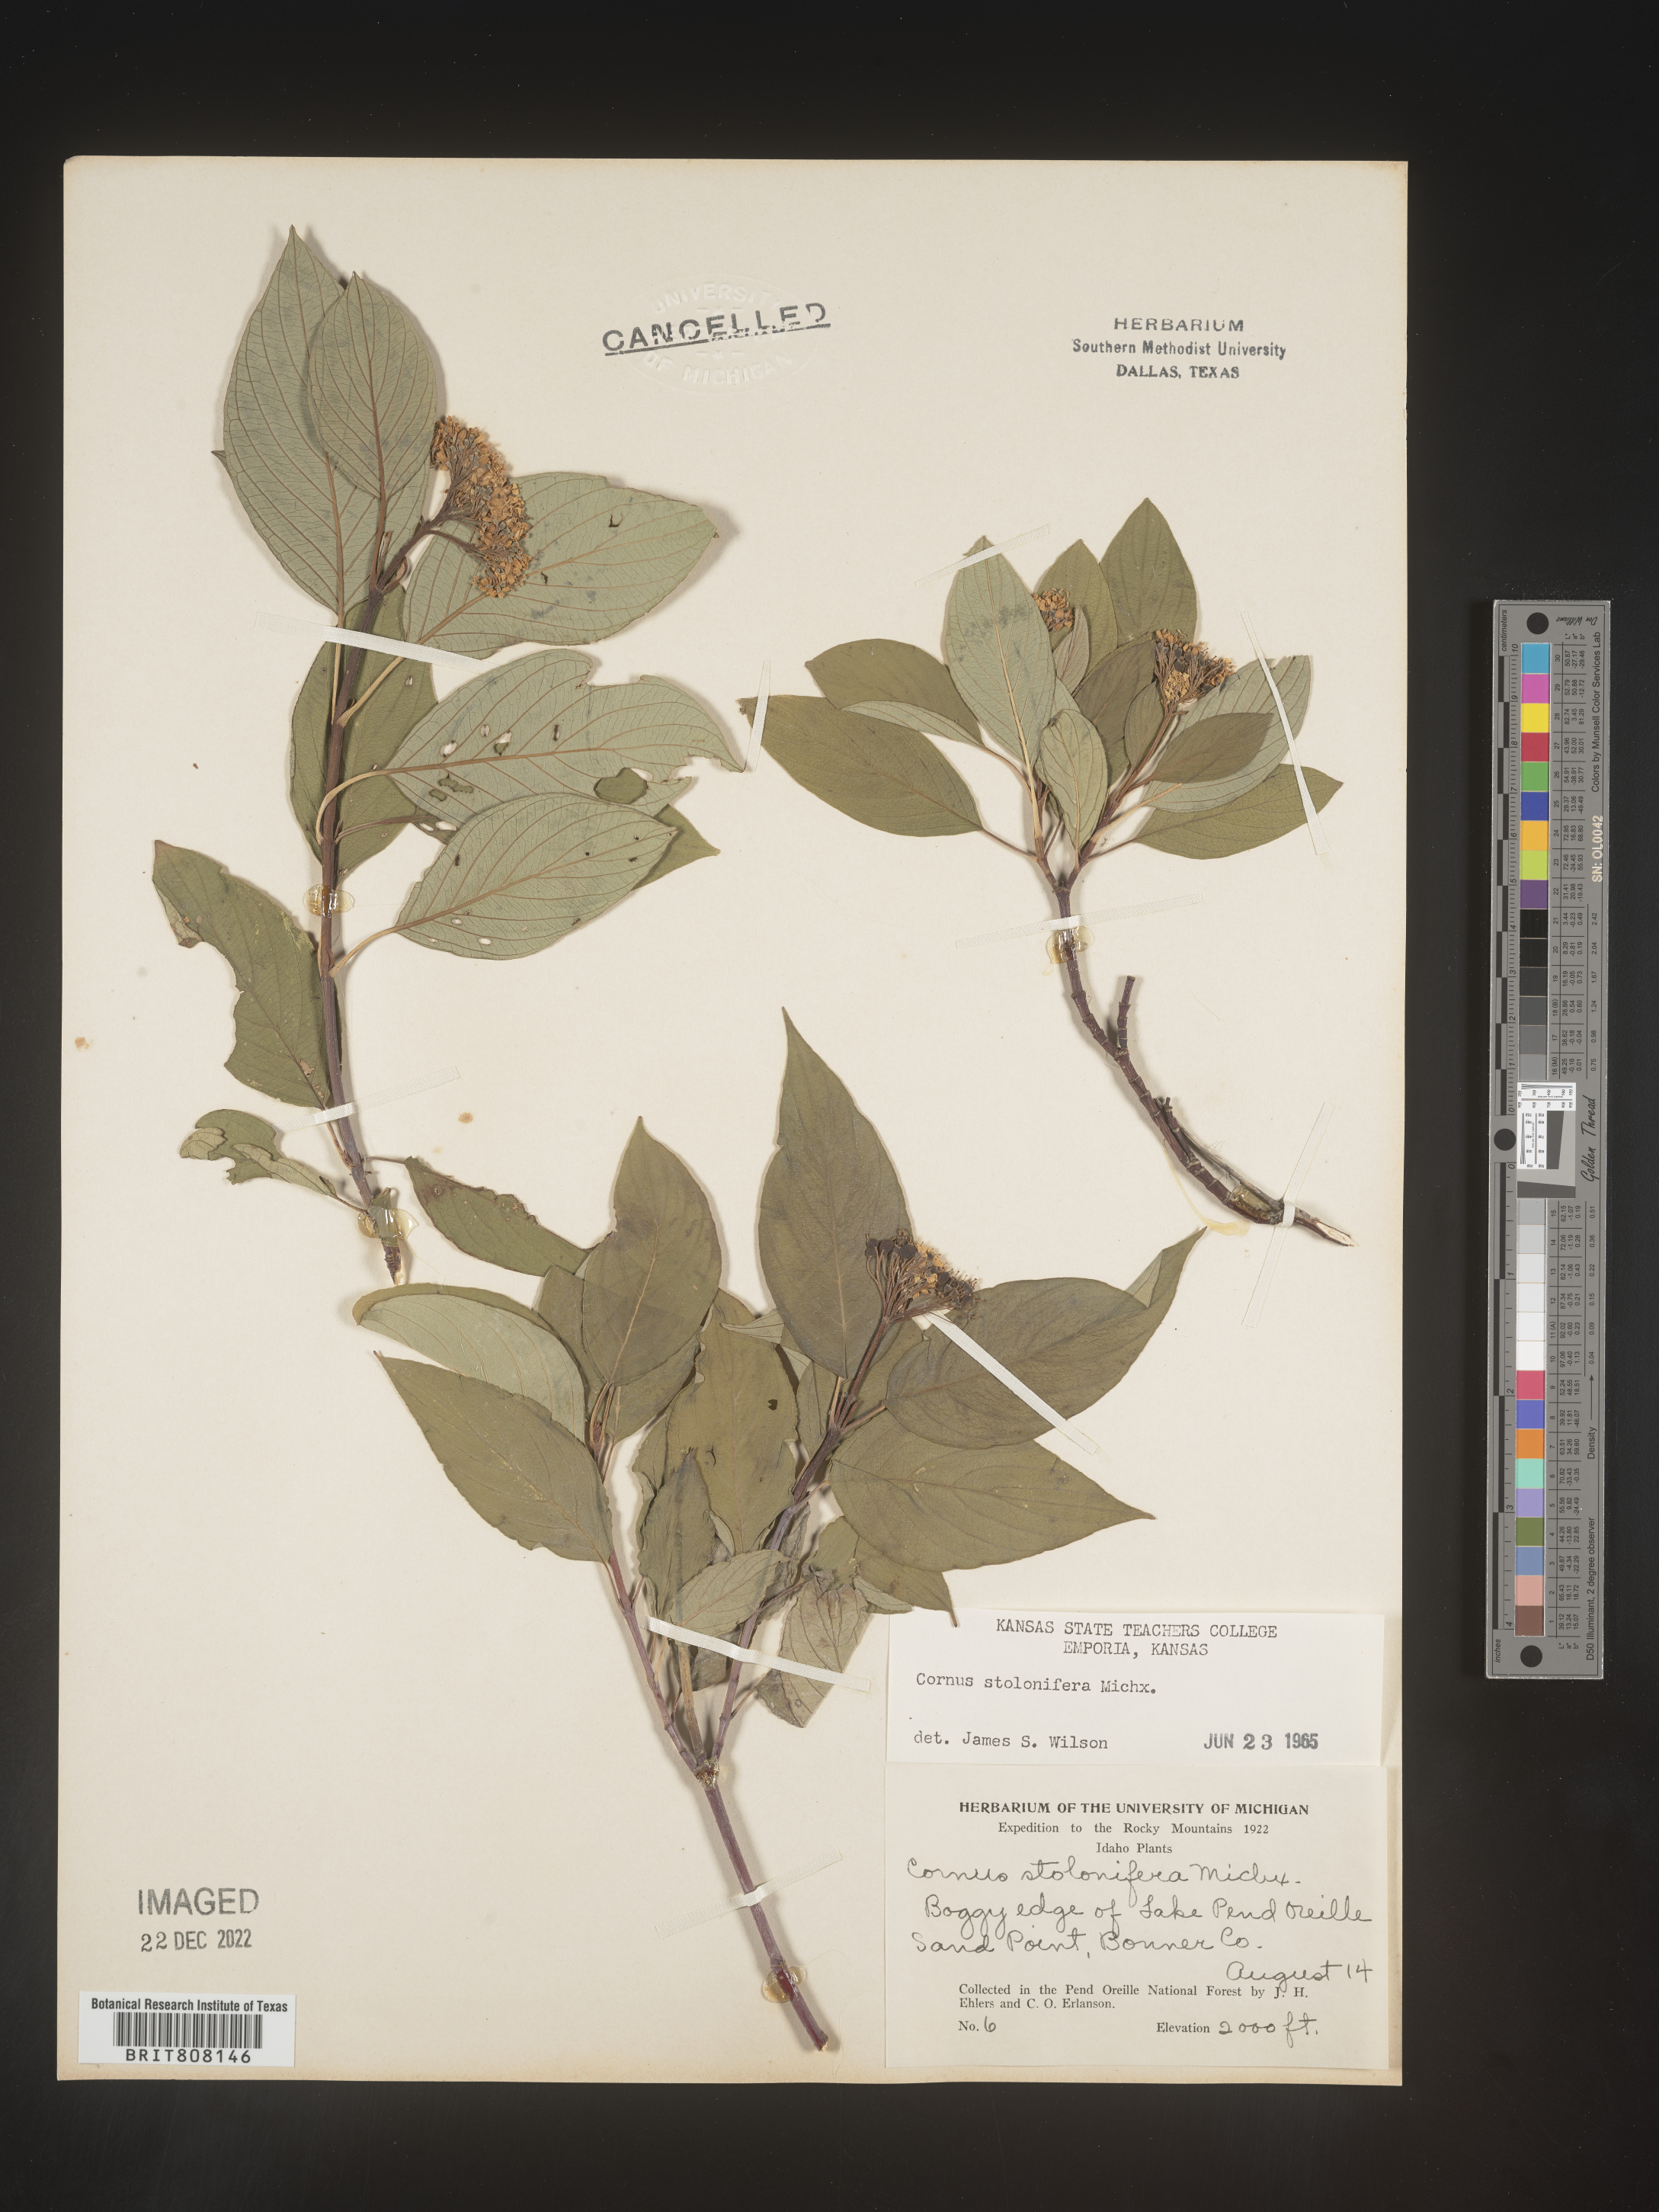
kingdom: Plantae
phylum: Tracheophyta
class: Magnoliopsida
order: Cornales
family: Cornaceae
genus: Cornus
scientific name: Cornus sericea
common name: Red-osier dogwood
